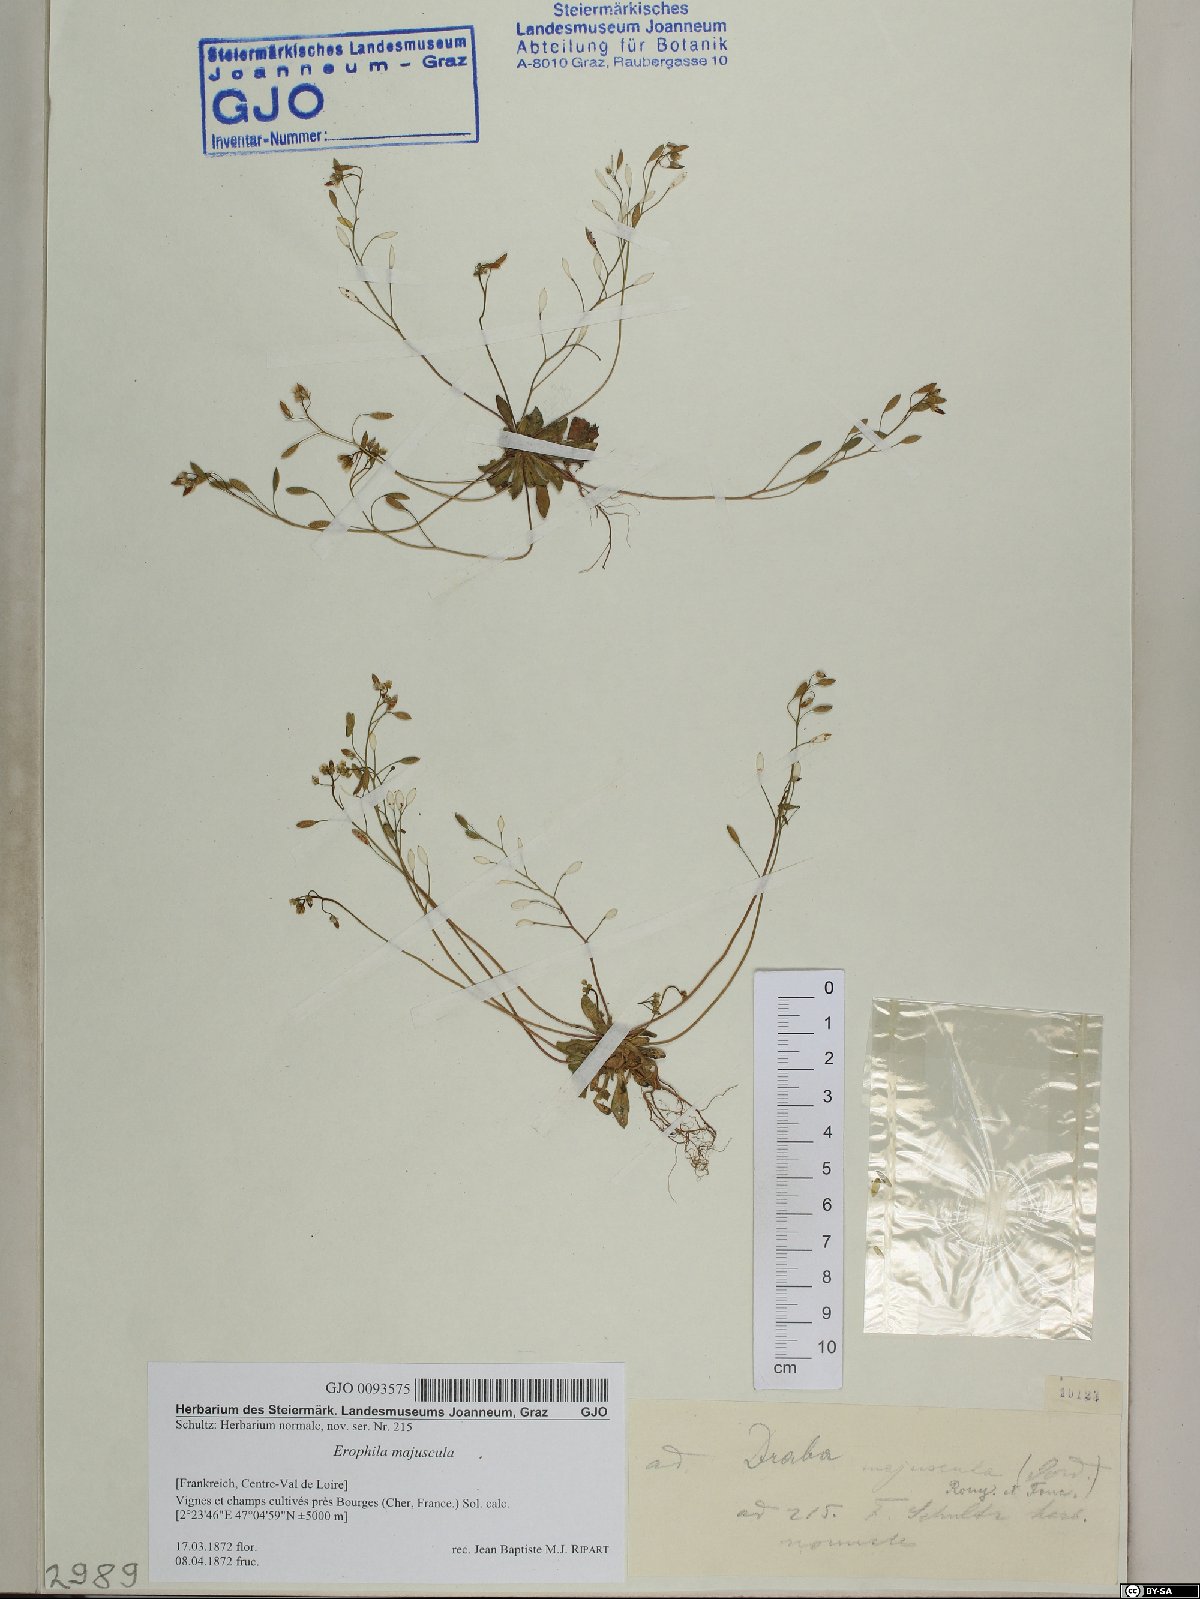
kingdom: Plantae
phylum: Tracheophyta
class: Magnoliopsida
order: Brassicales
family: Brassicaceae
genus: Draba
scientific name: Draba verna
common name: Spring draba
